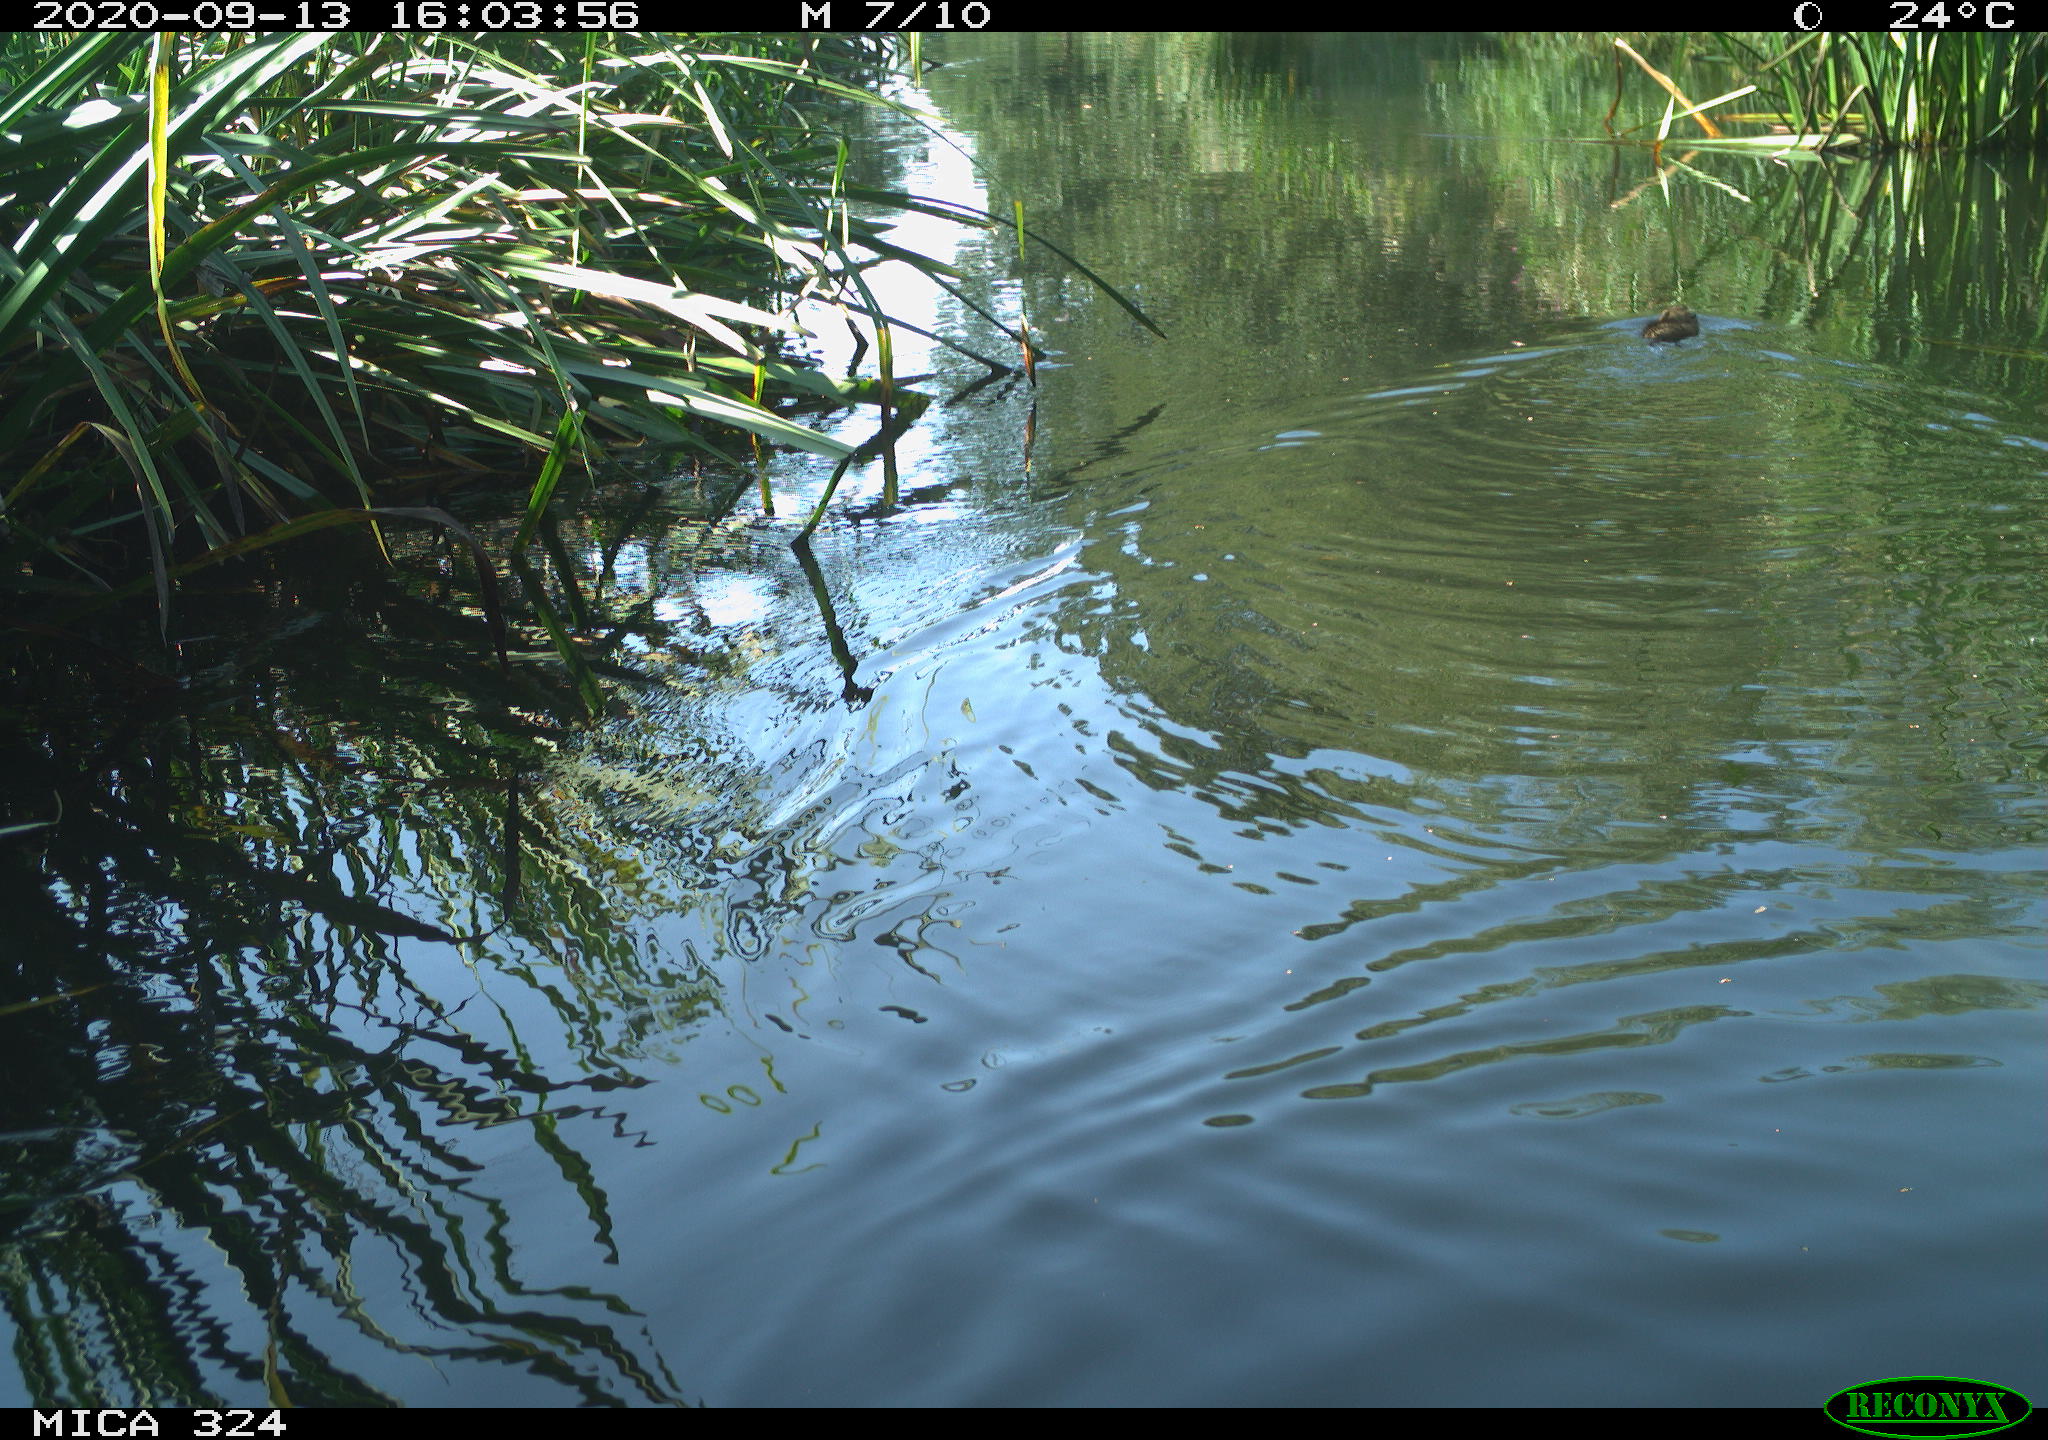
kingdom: Animalia
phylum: Chordata
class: Mammalia
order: Rodentia
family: Cricetidae
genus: Ondatra
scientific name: Ondatra zibethicus
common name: Muskrat
